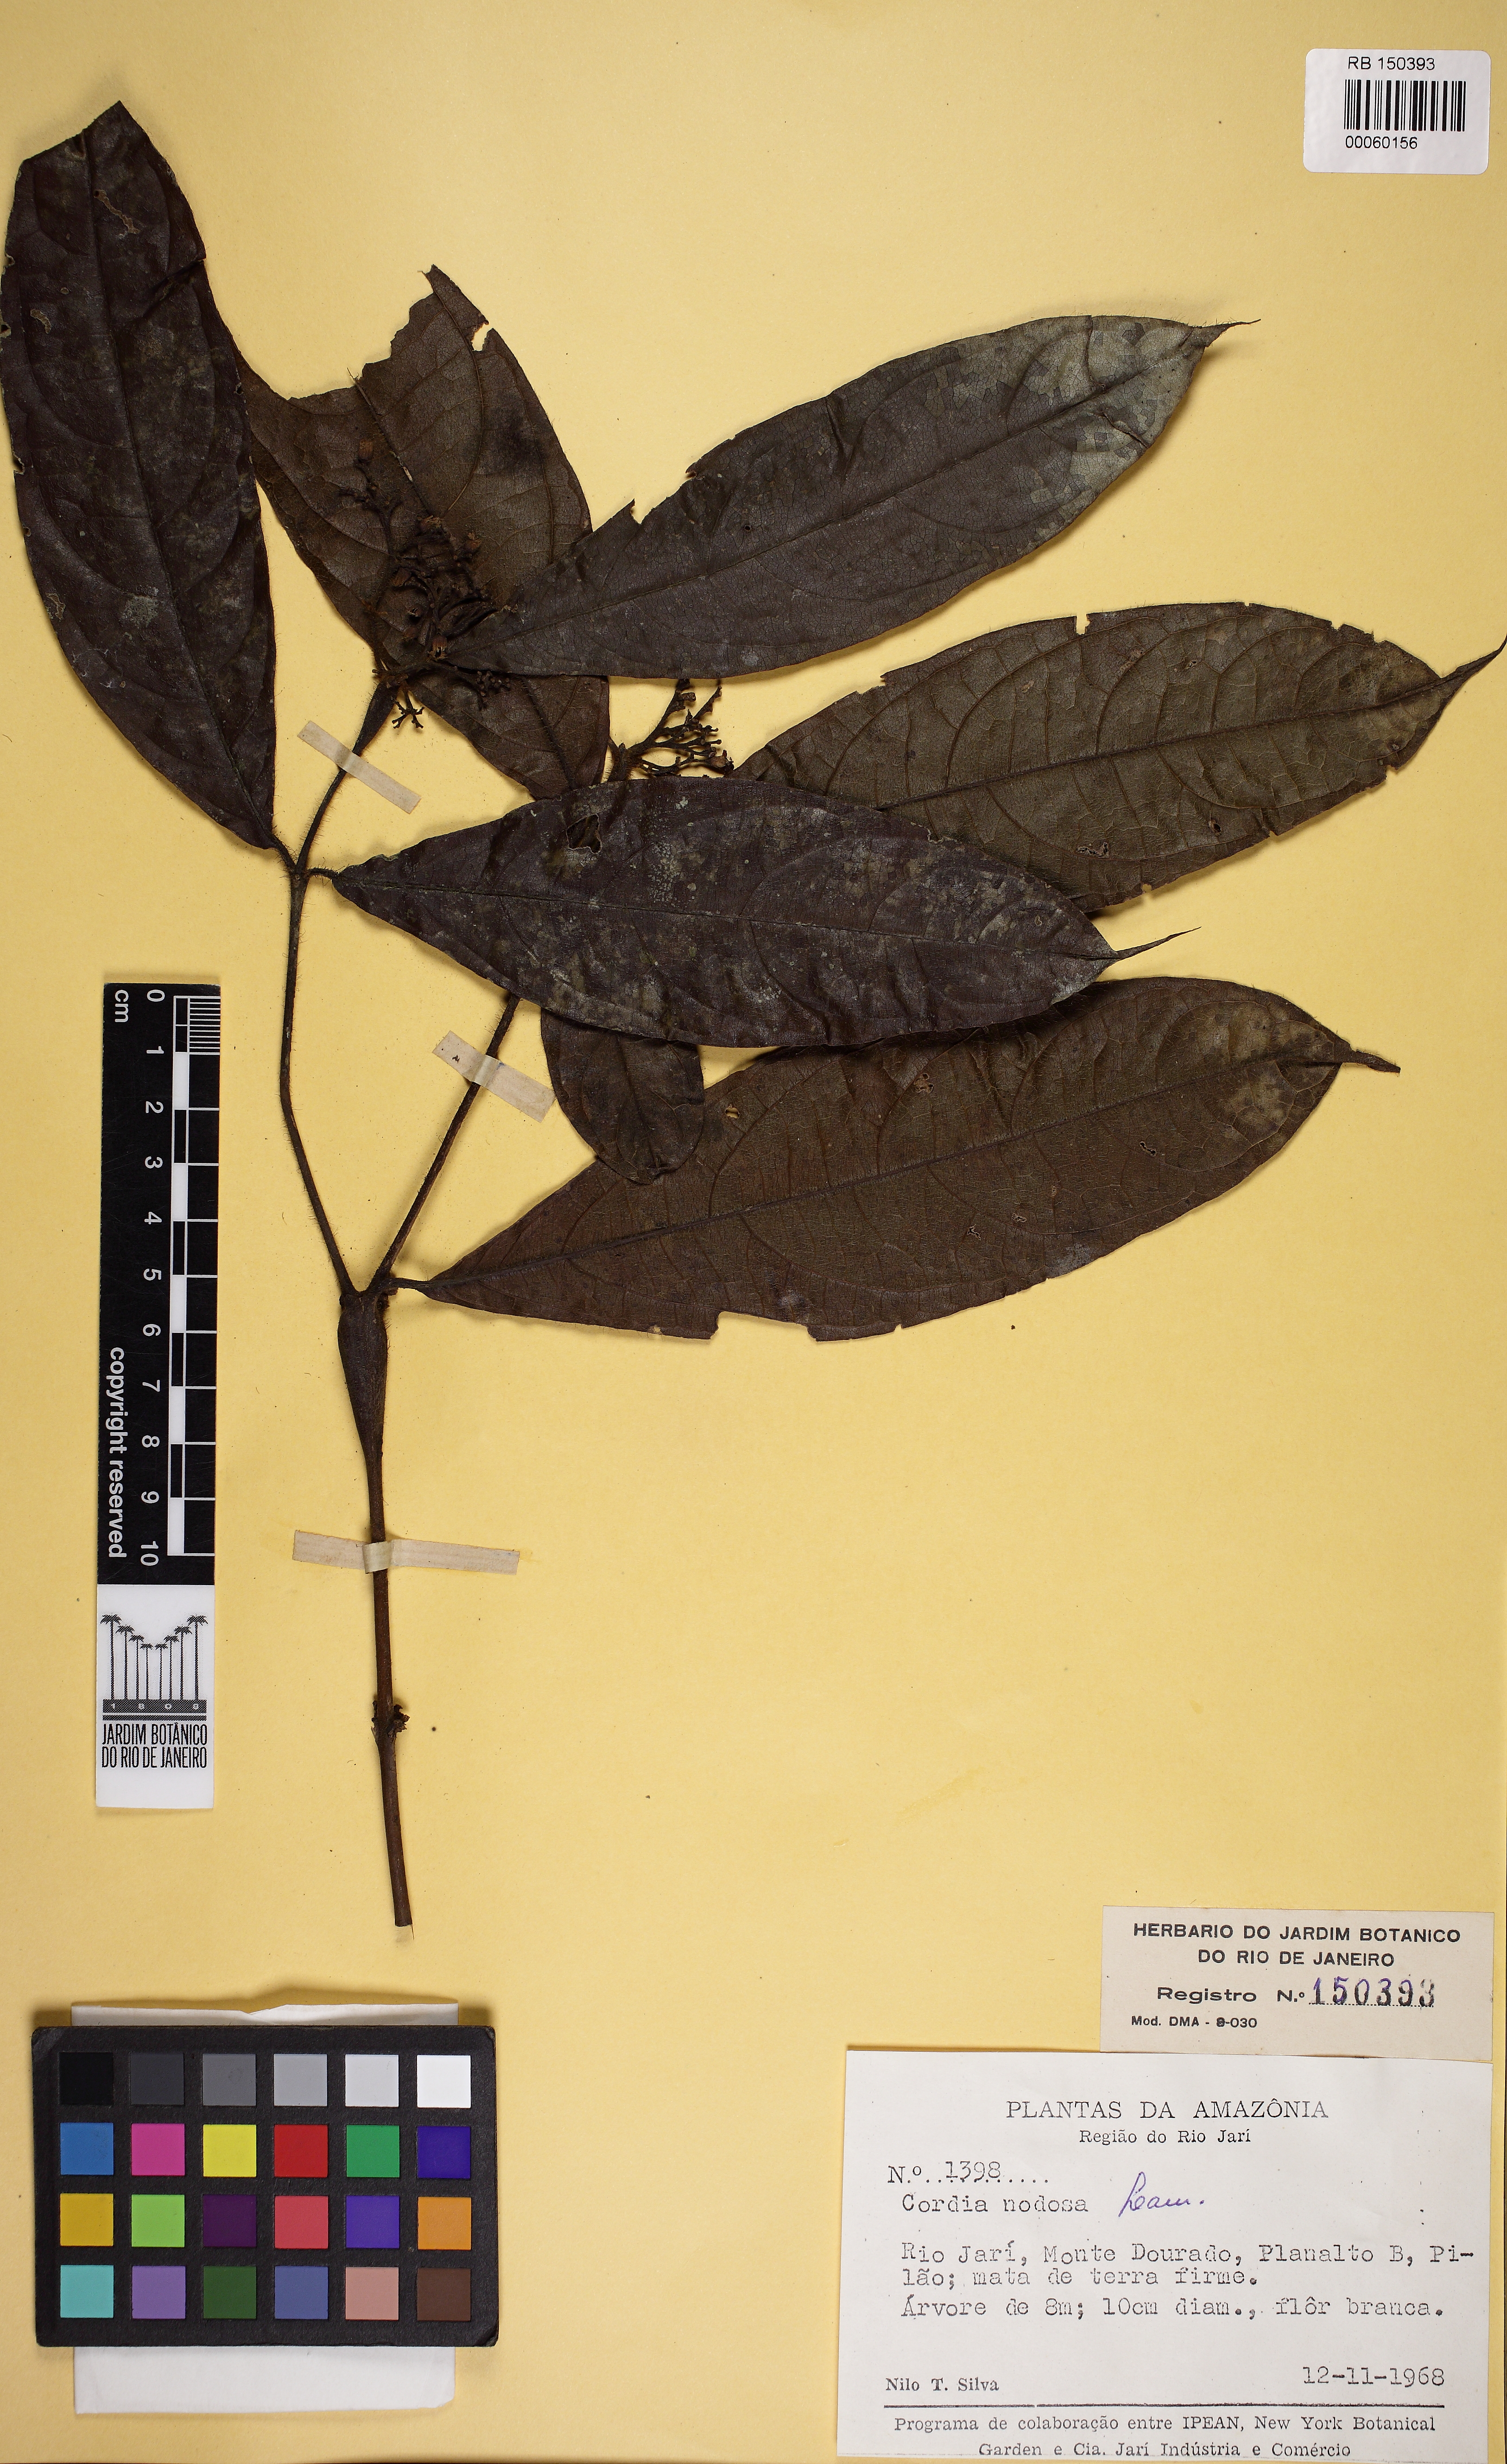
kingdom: Plantae
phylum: Tracheophyta
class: Magnoliopsida
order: Boraginales
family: Cordiaceae
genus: Cordia
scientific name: Cordia nodosa
